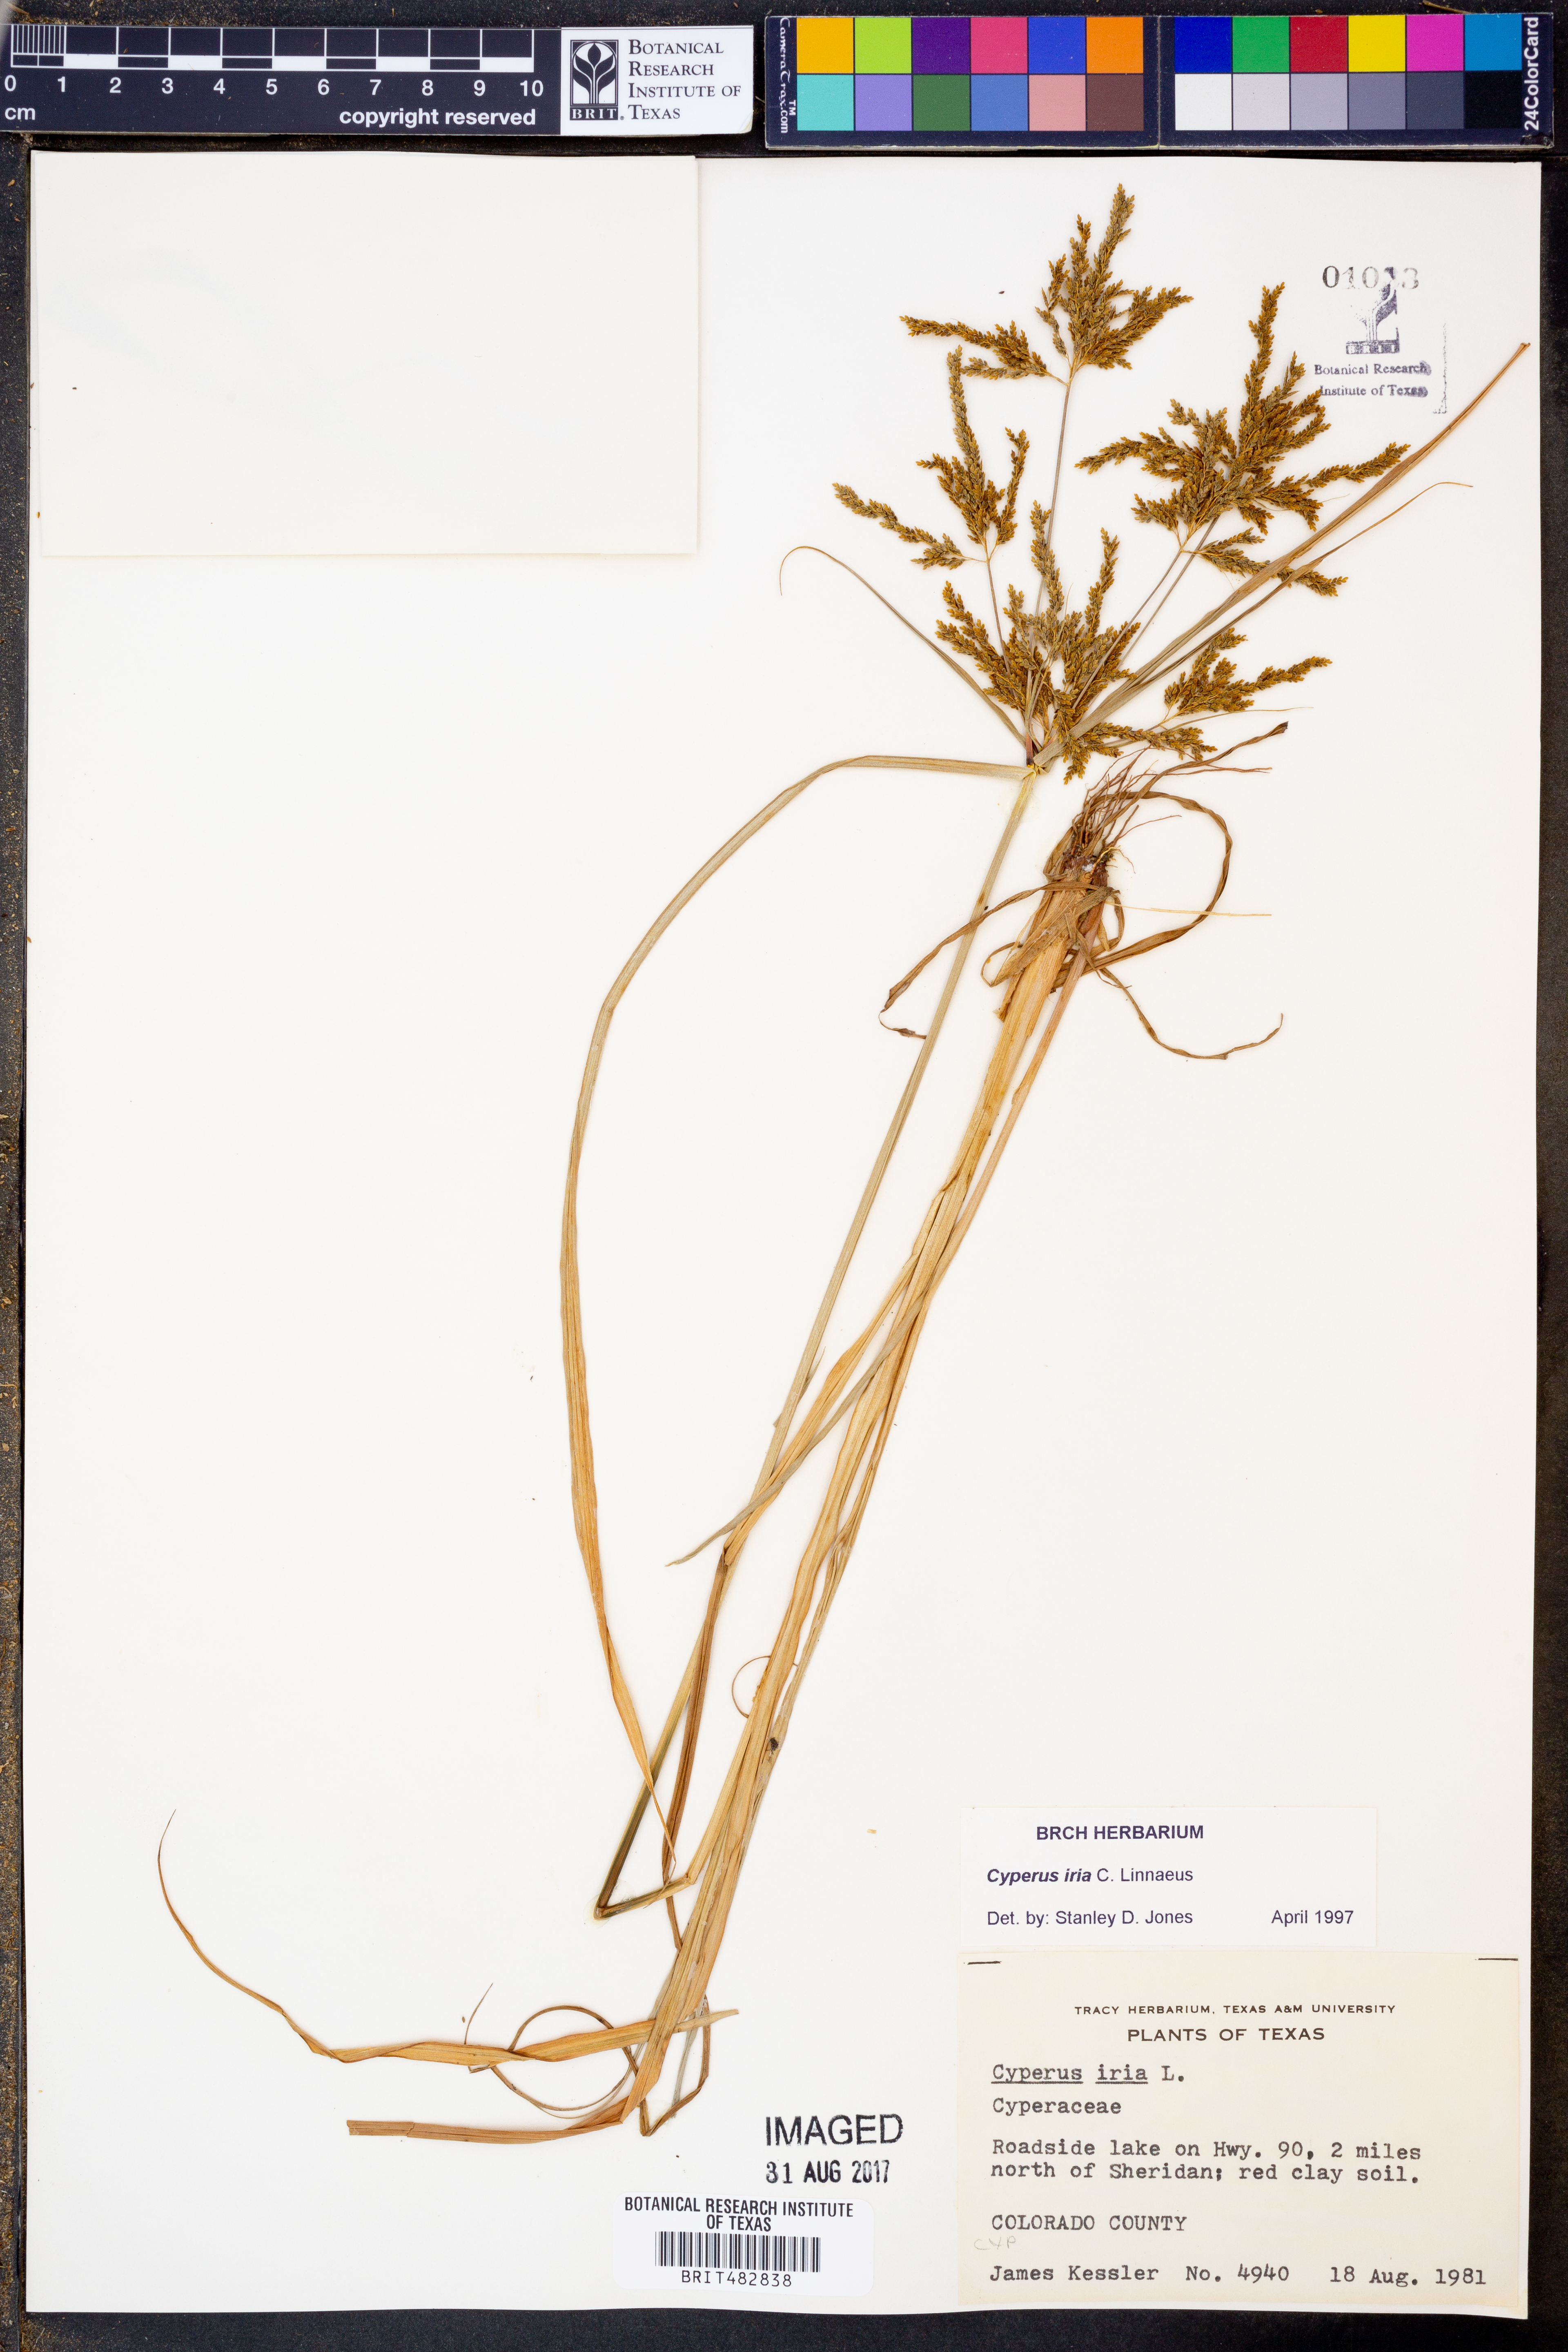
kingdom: Plantae
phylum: Tracheophyta
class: Liliopsida
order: Poales
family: Cyperaceae
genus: Cyperus
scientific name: Cyperus iria
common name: Ricefield flatsedge
